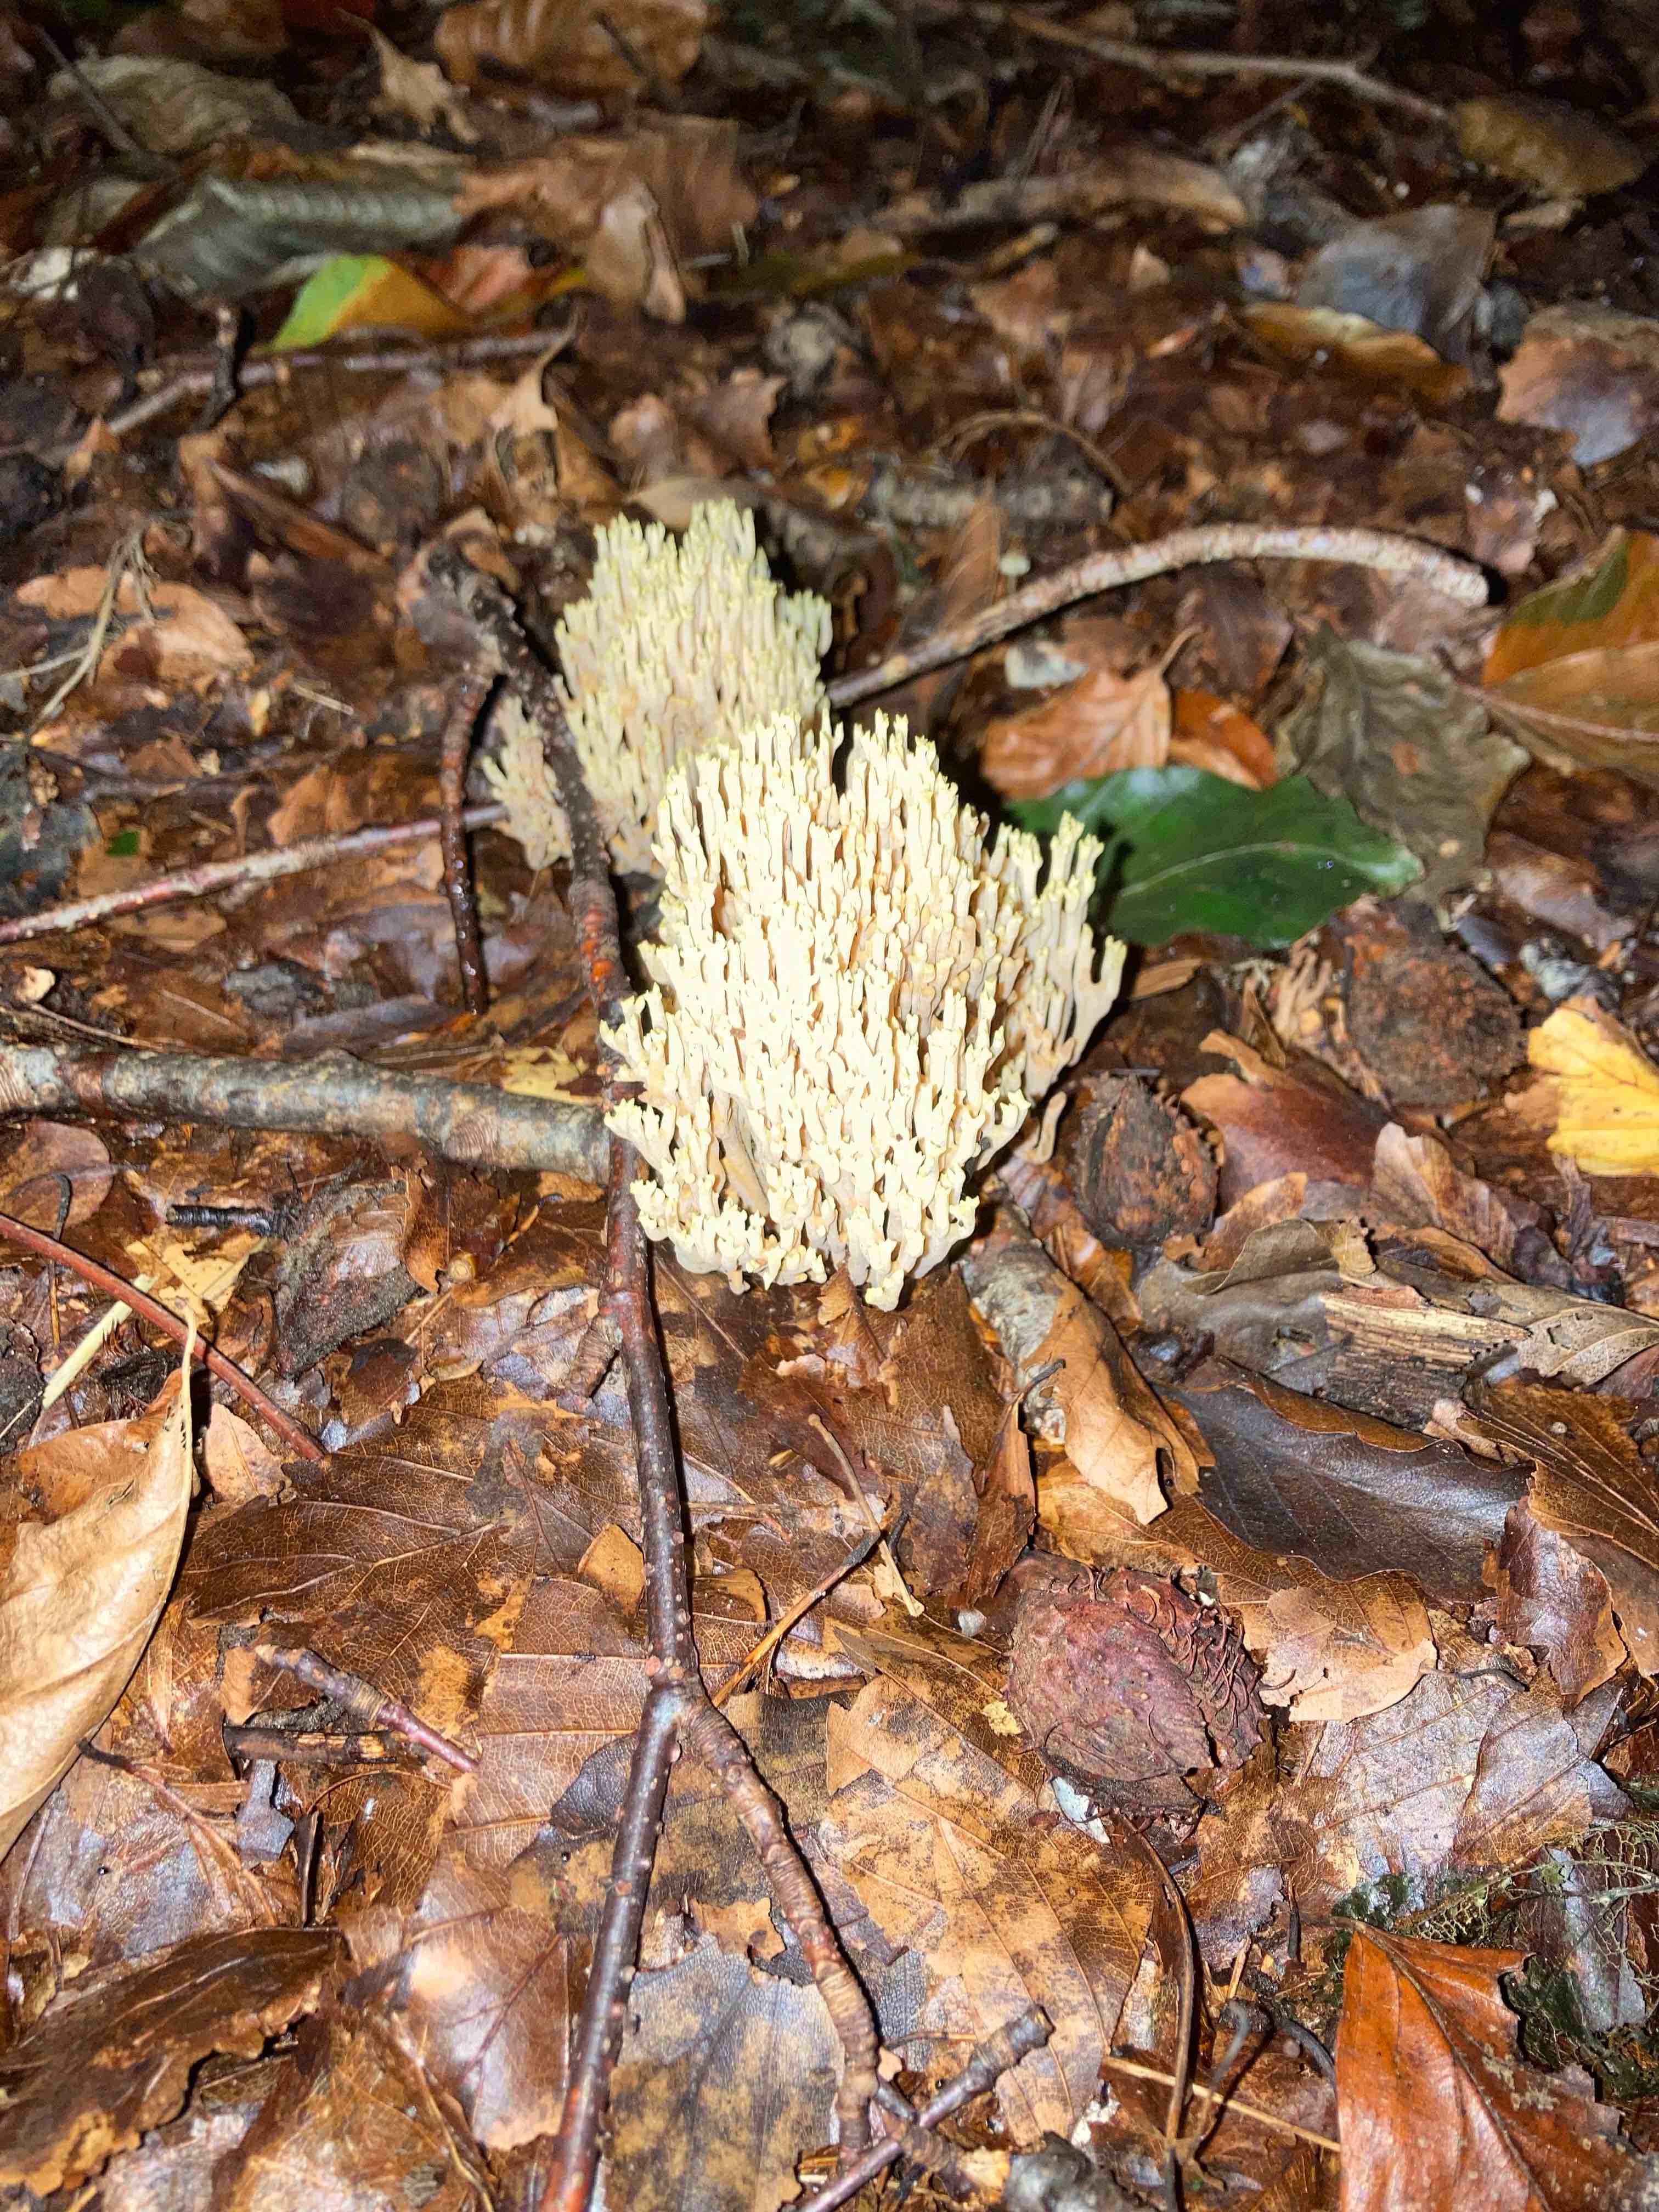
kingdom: Fungi
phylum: Basidiomycota
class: Agaricomycetes
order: Gomphales
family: Gomphaceae
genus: Ramaria
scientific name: Ramaria stricta
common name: rank koralsvamp
